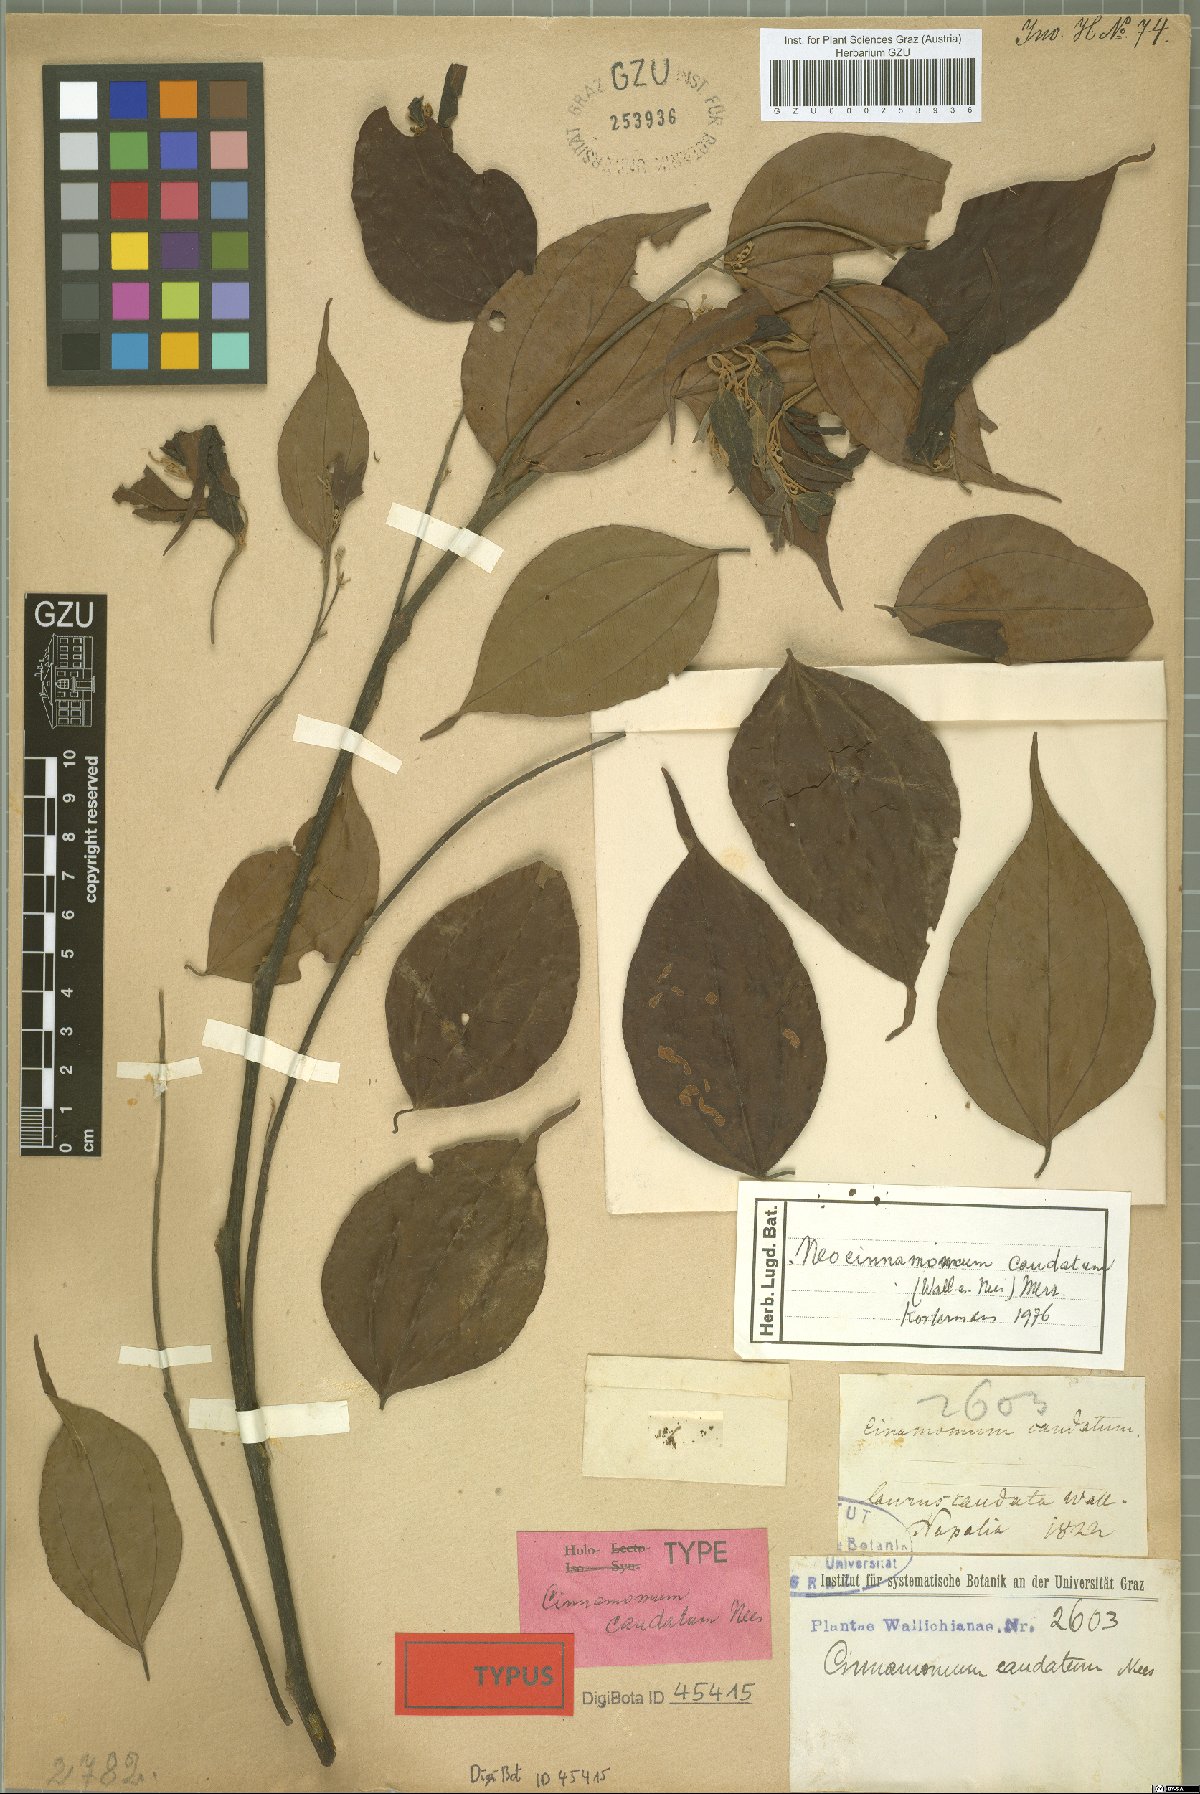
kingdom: Plantae
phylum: Tracheophyta
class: Magnoliopsida
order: Laurales
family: Lauraceae
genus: Neocinnamomum
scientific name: Neocinnamomum caudatum
